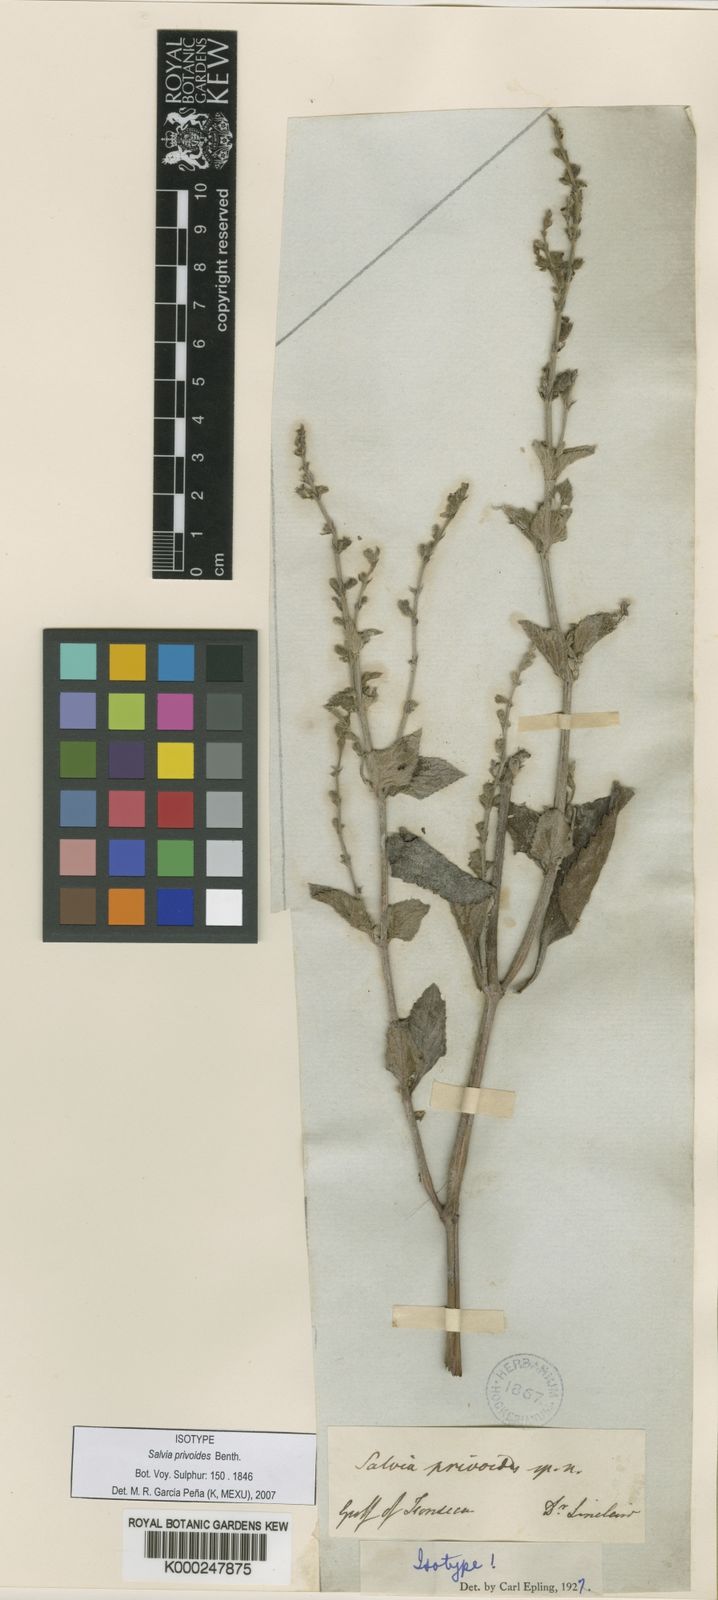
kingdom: Plantae
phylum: Tracheophyta
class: Magnoliopsida
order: Lamiales
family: Lamiaceae
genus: Salvia
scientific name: Salvia misella
